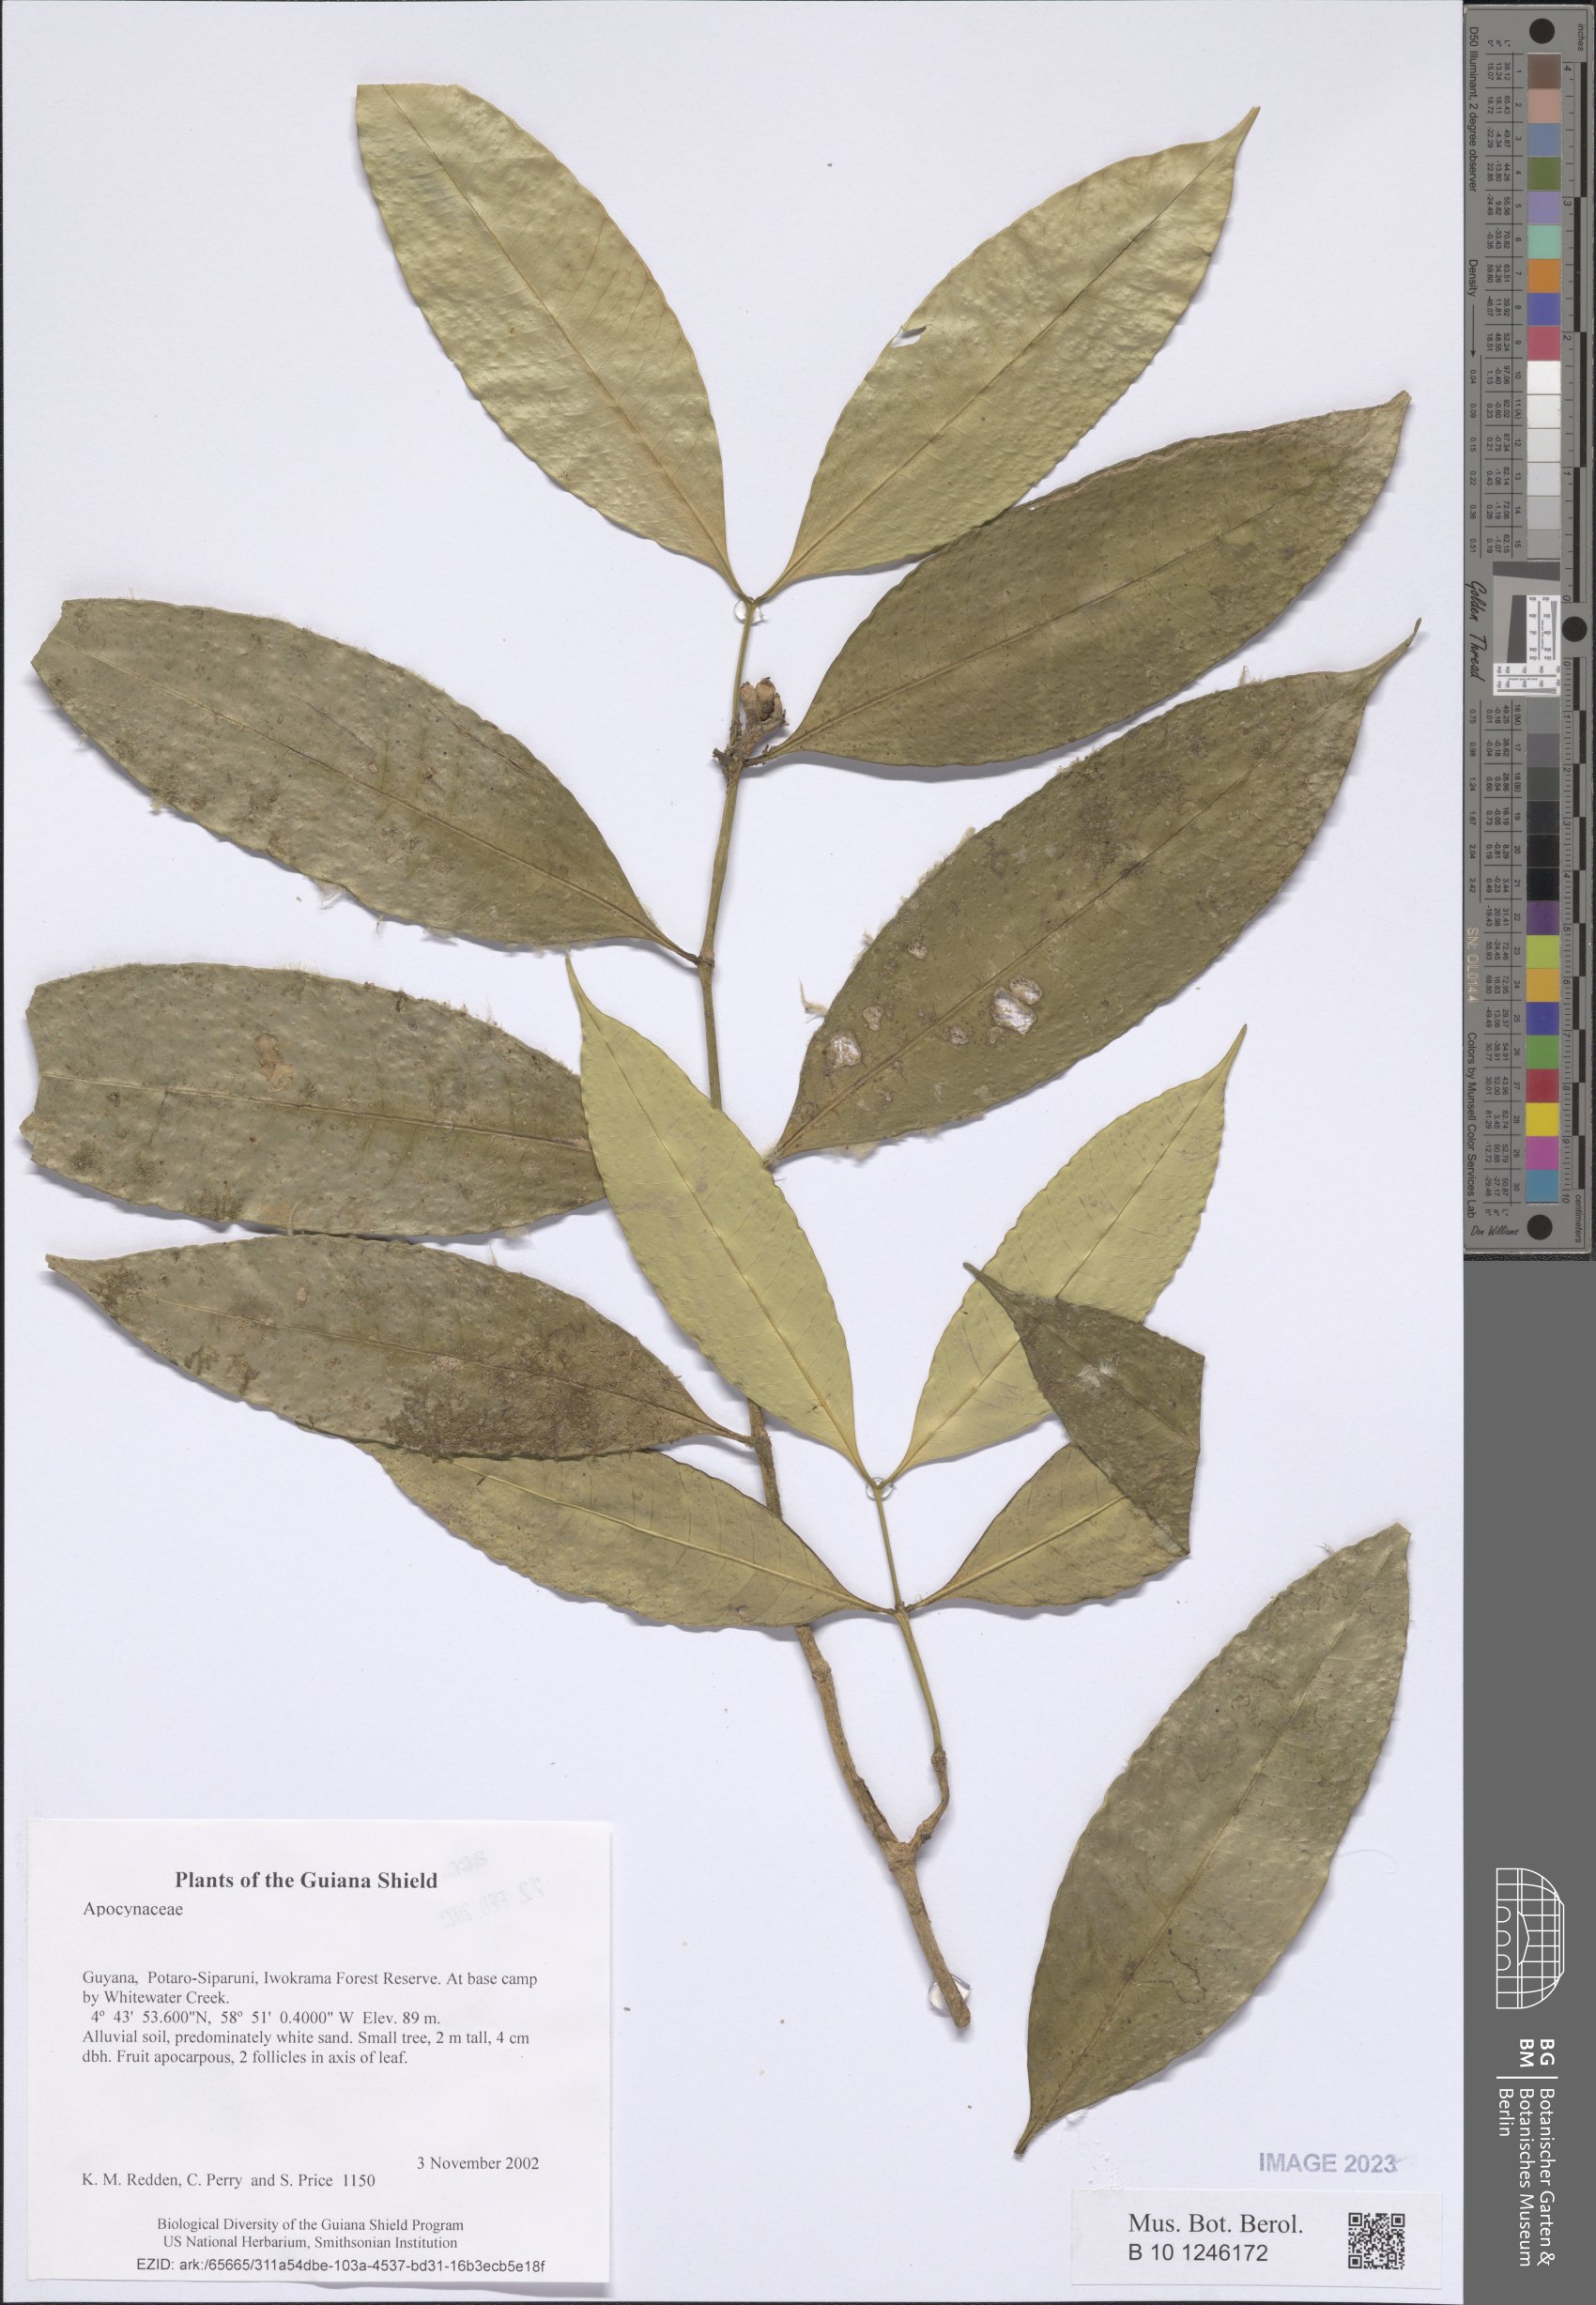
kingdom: Plantae
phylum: Tracheophyta
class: Magnoliopsida
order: Gentianales
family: Apocynaceae
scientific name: Apocynaceae
